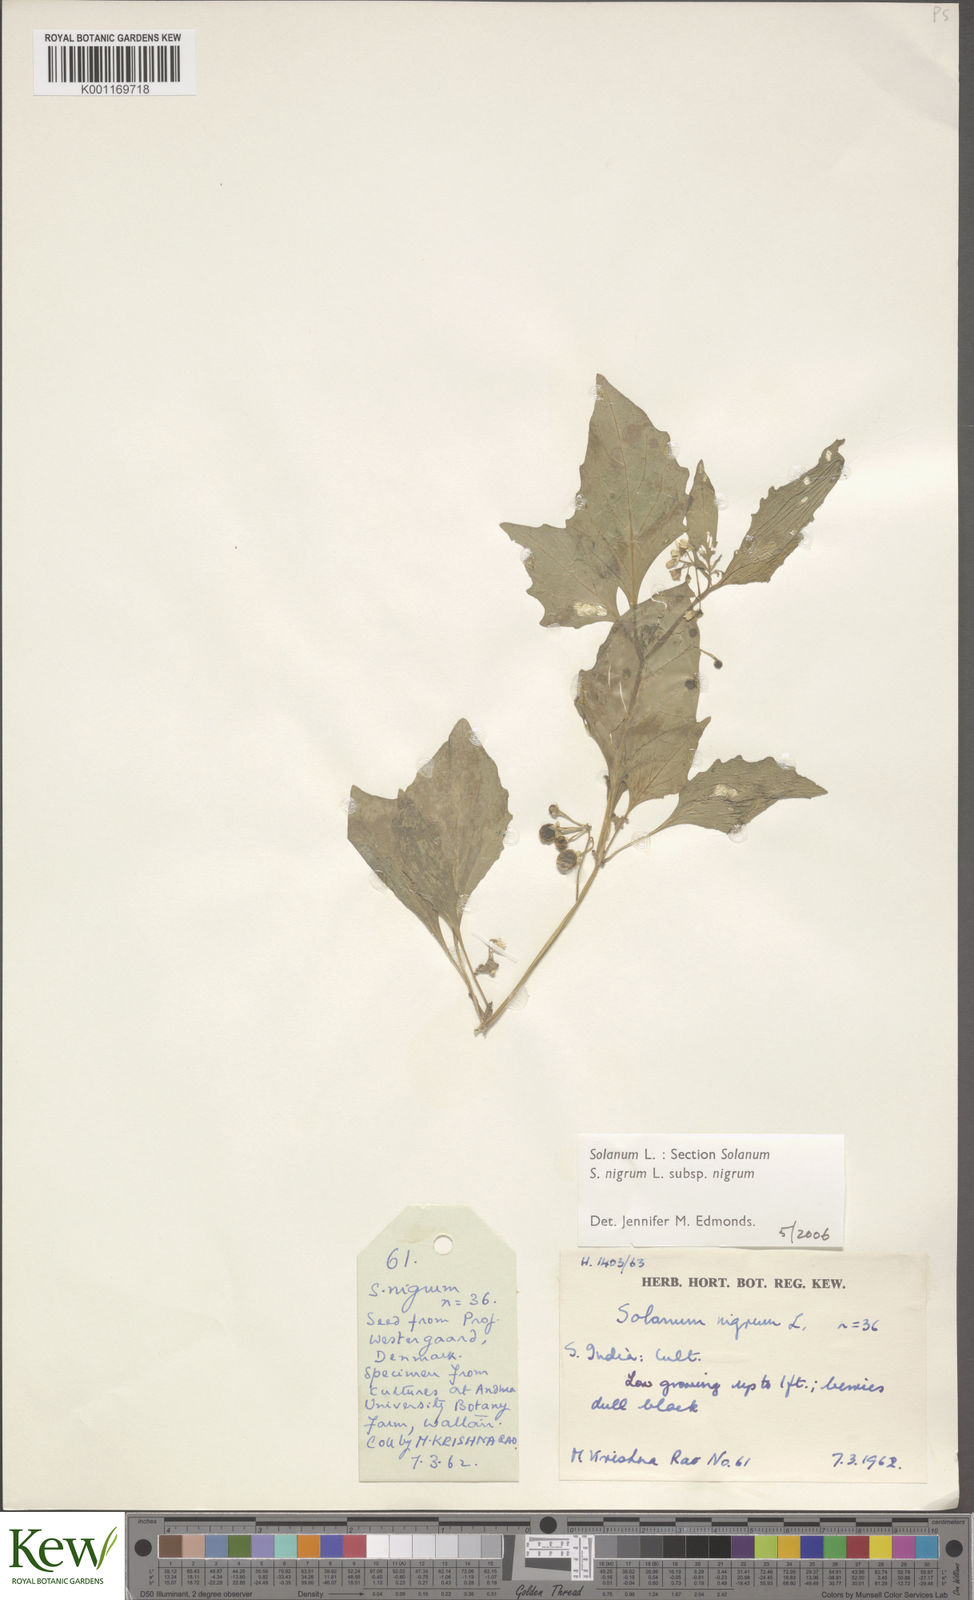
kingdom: Plantae
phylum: Tracheophyta
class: Magnoliopsida
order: Solanales
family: Solanaceae
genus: Solanum
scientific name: Solanum nigrum
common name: Black nightshade
